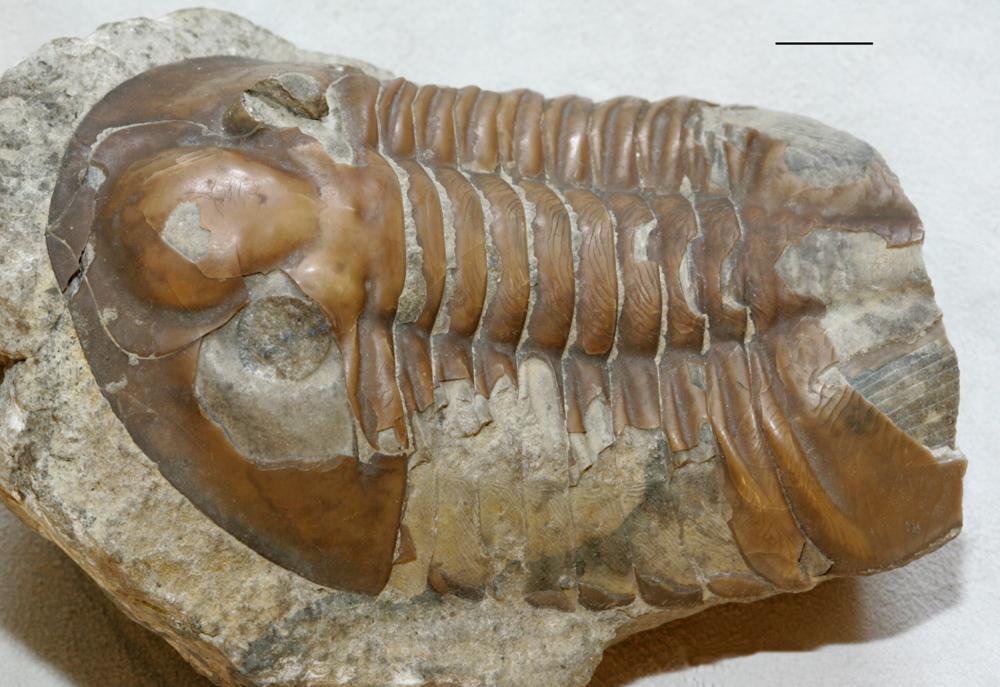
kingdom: Animalia
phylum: Arthropoda
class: Trilobita
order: Asaphida
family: Asaphidae
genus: Pseudasaphus
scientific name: Pseudasaphus globifrons
